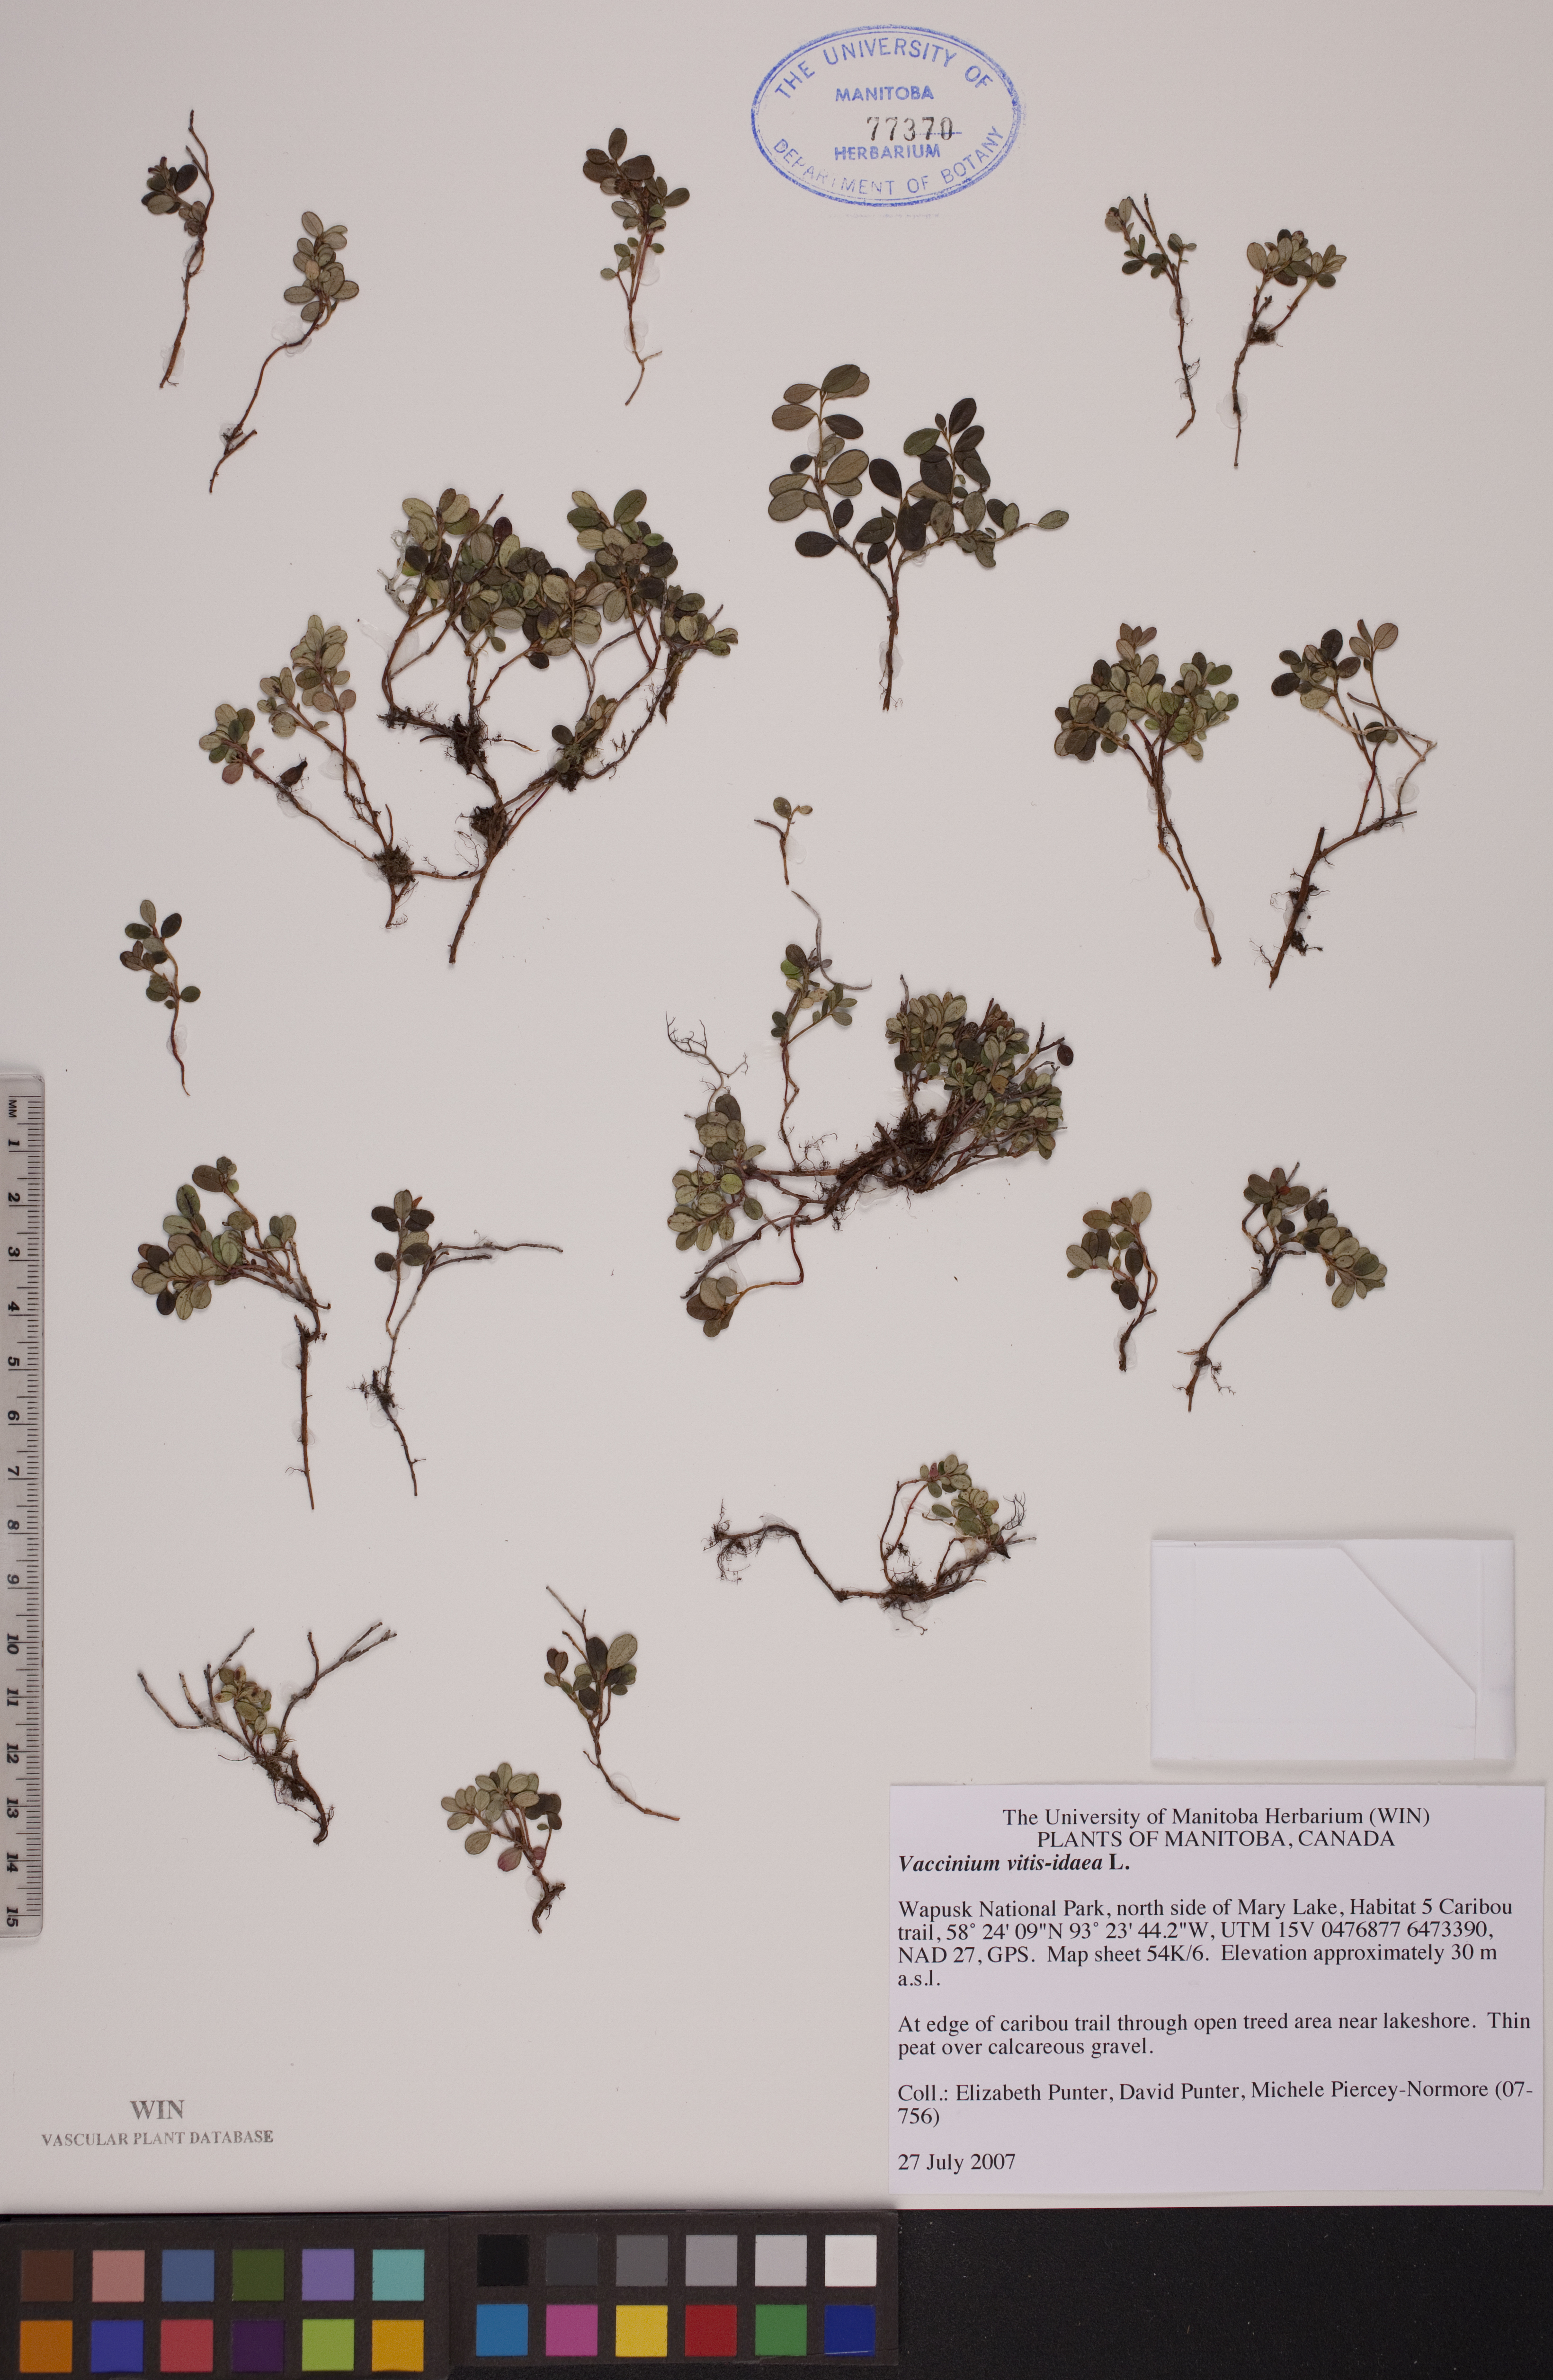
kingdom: Plantae
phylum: Tracheophyta
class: Magnoliopsida
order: Ericales
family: Ericaceae
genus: Vaccinium
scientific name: Vaccinium vitis-idaea
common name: Cowberry
